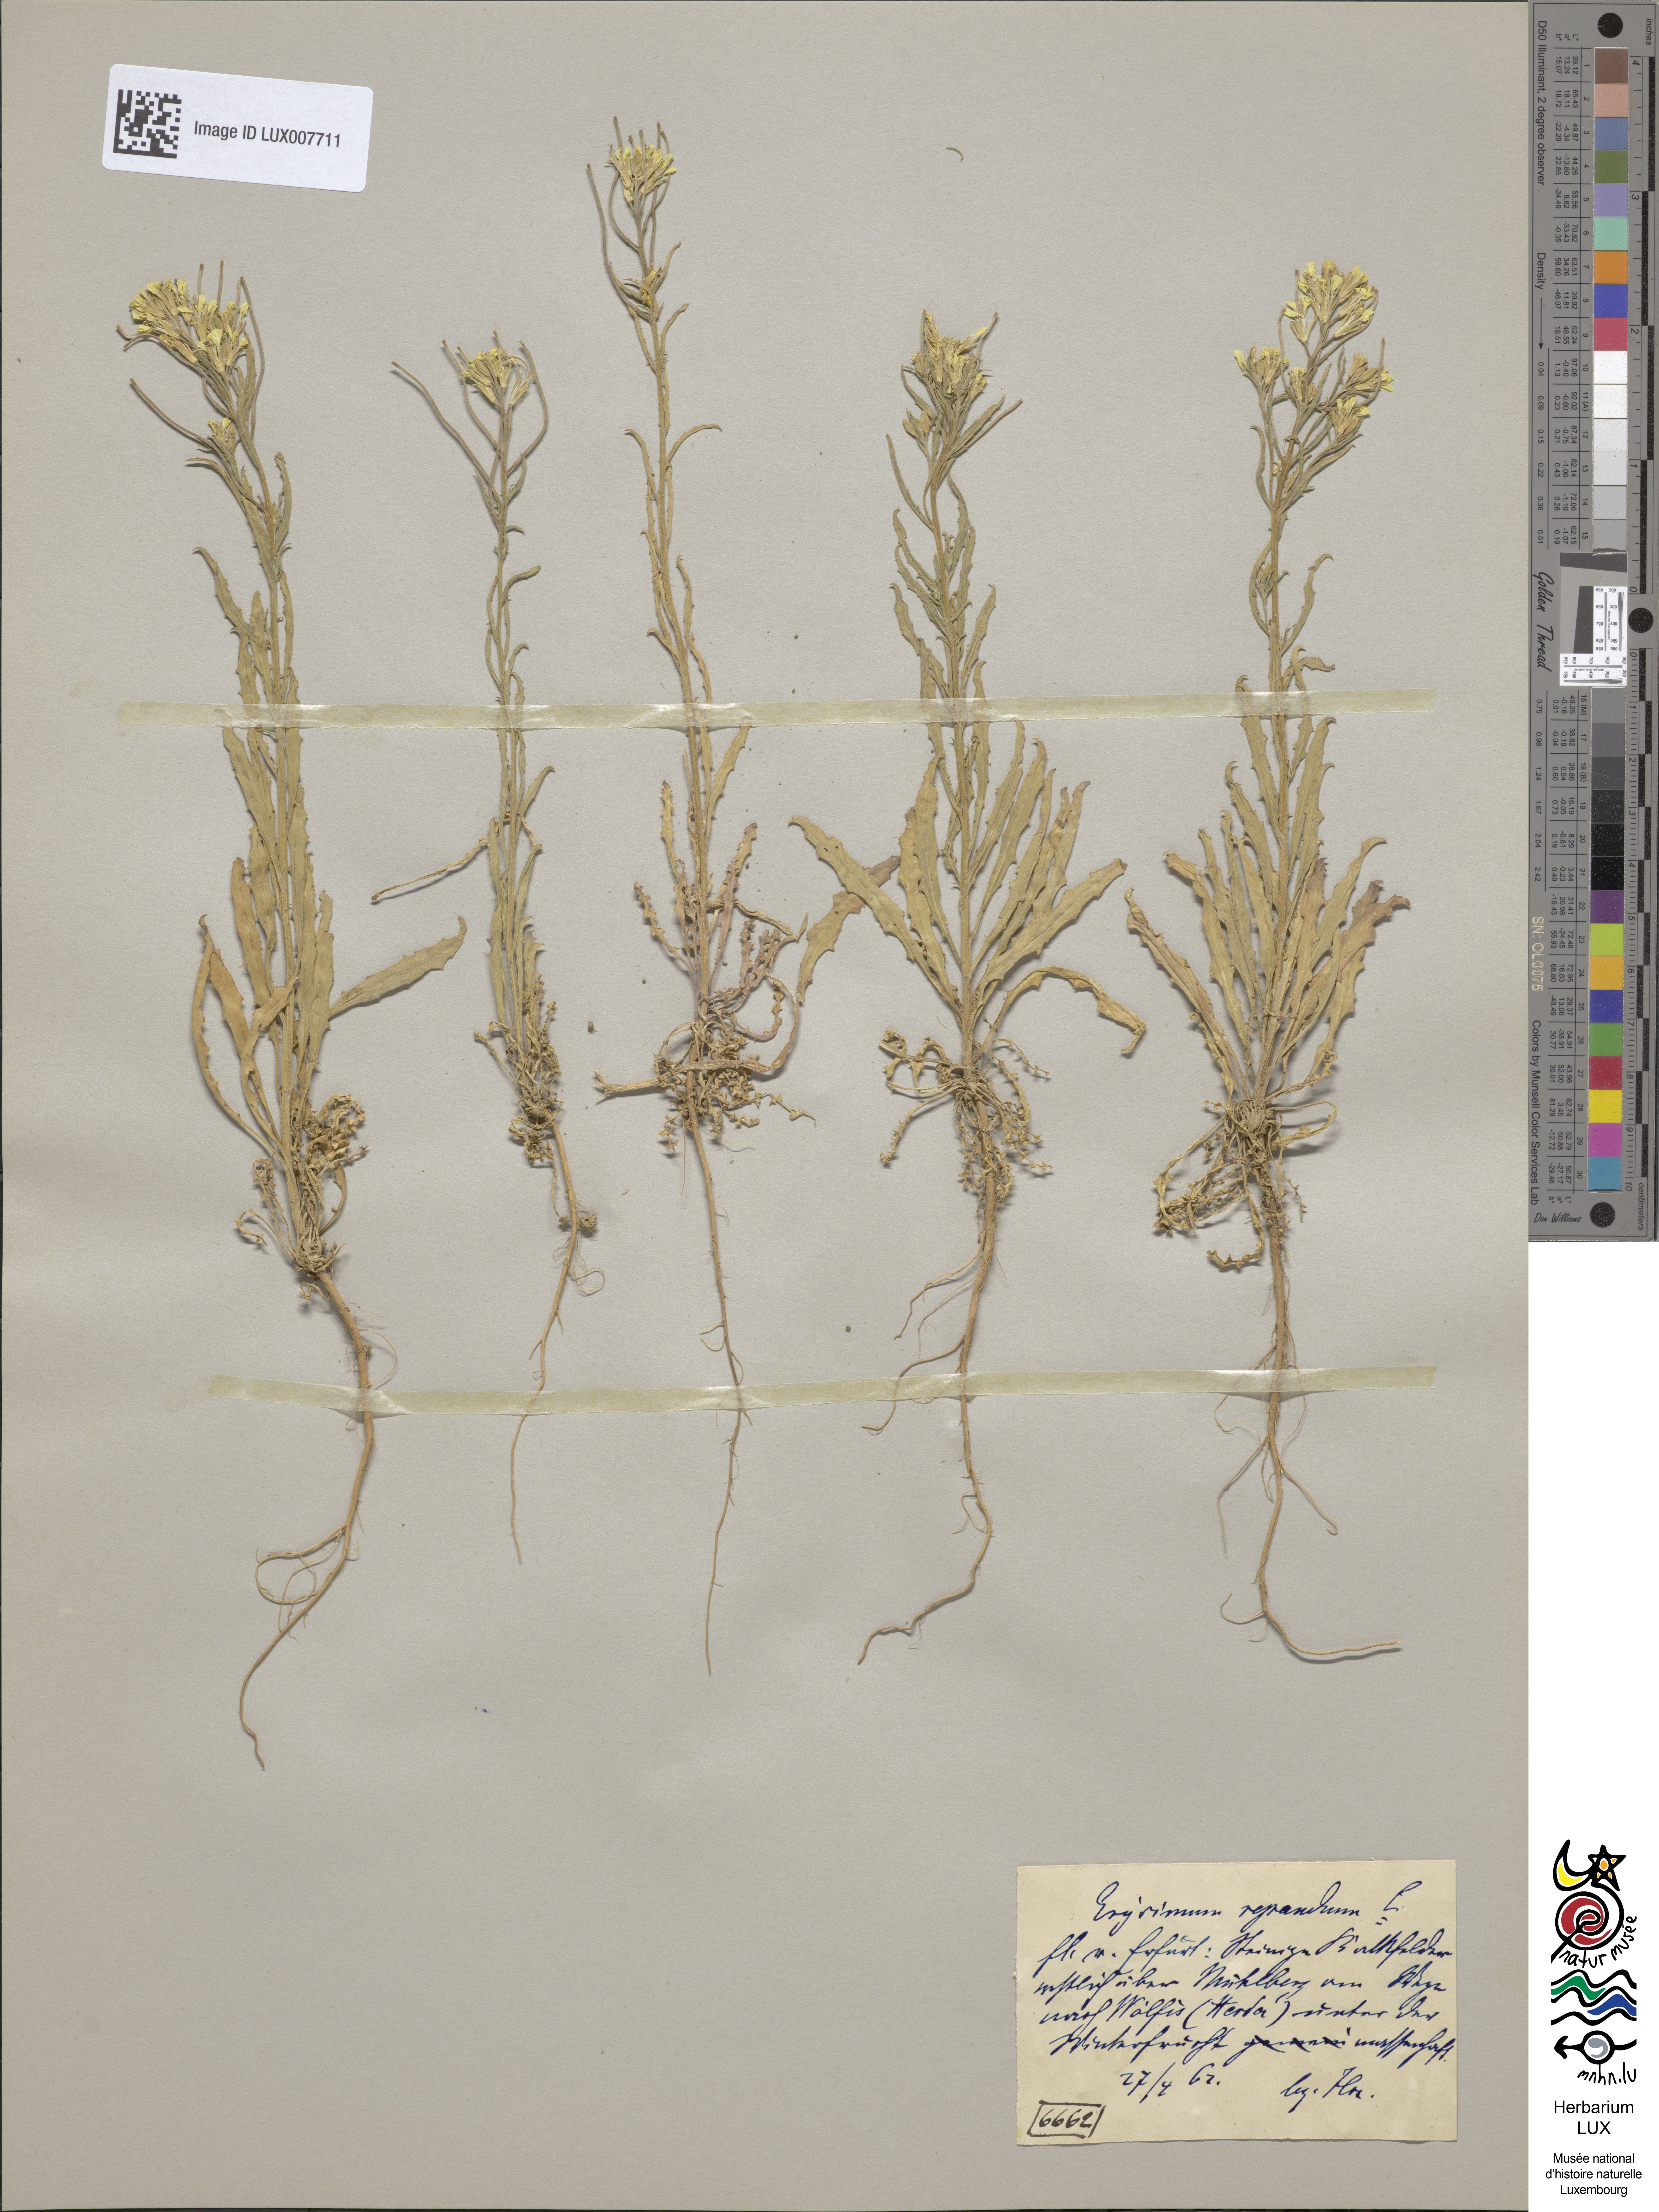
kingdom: Plantae
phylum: Tracheophyta
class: Magnoliopsida
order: Brassicales
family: Brassicaceae
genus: Erysimum
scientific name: Erysimum repandum
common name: Spreading wallflower
